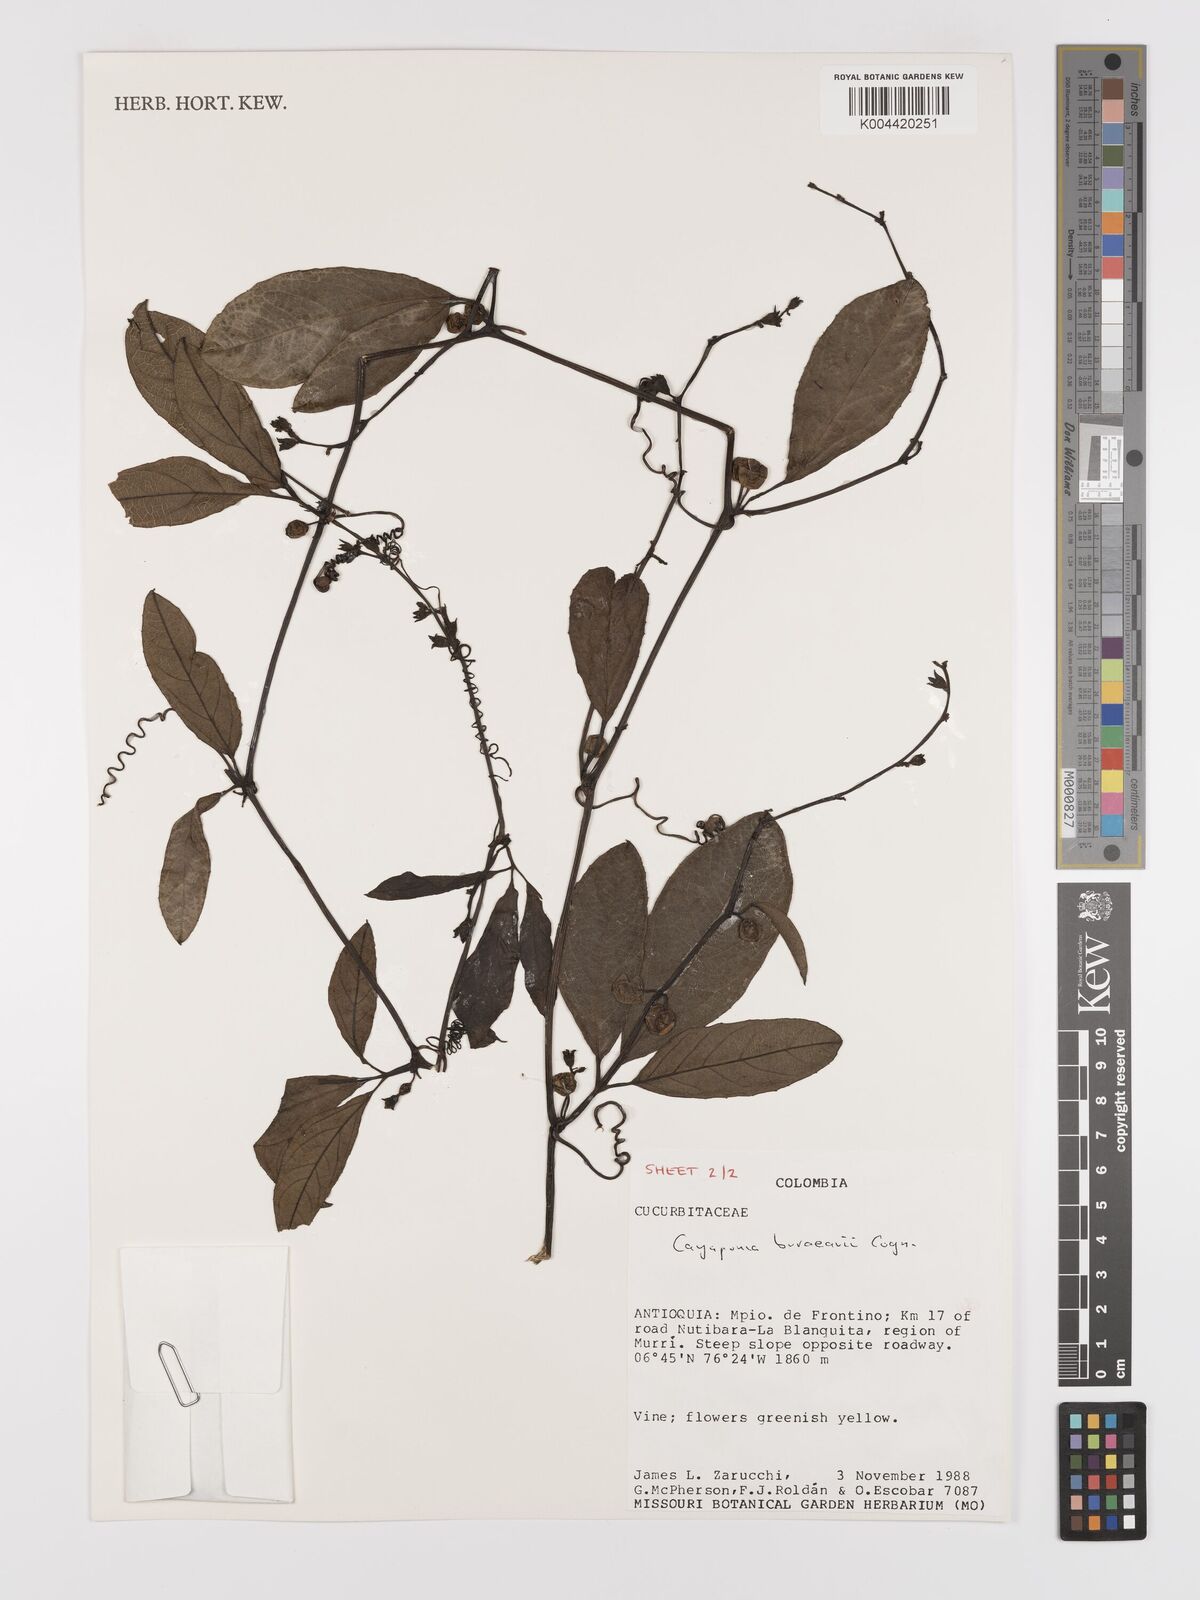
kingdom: Plantae
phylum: Tracheophyta
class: Magnoliopsida
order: Cucurbitales
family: Cucurbitaceae
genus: Cayaponia
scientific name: Cayaponia buraeavii
